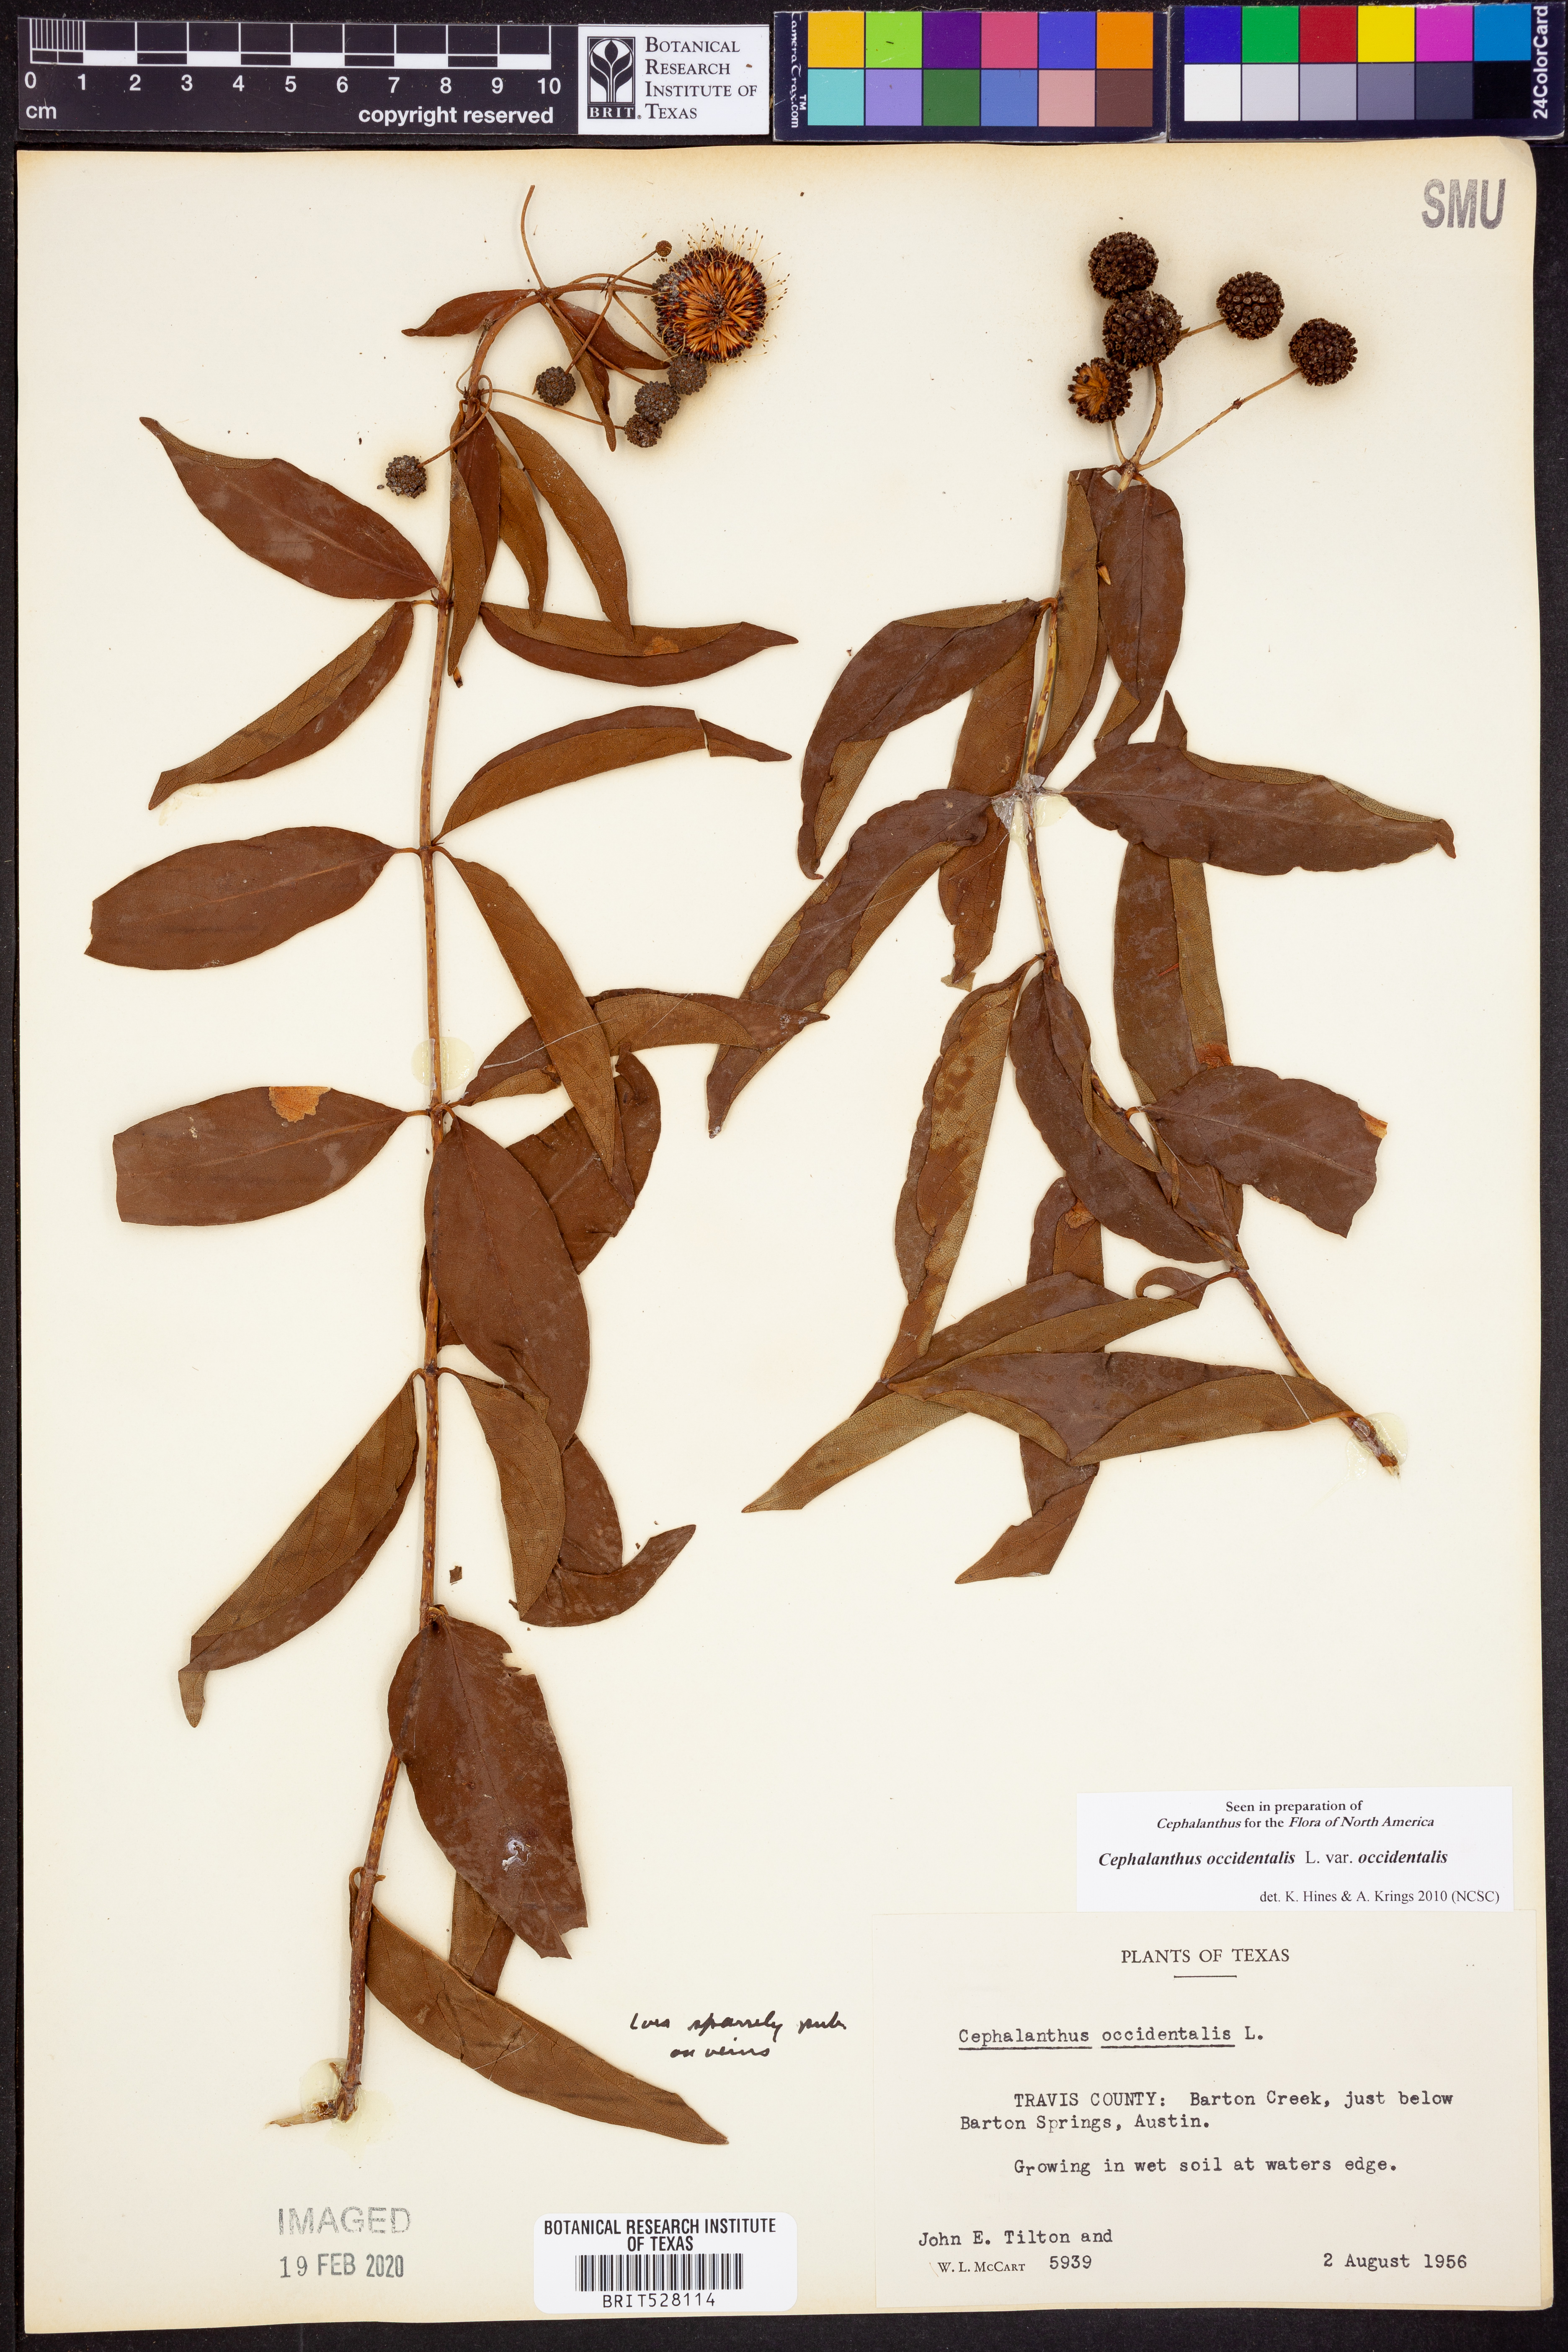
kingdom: Plantae
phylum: Tracheophyta
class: Magnoliopsida
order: Gentianales
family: Rubiaceae
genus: Cephalanthus
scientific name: Cephalanthus occidentalis
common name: Button-willow
